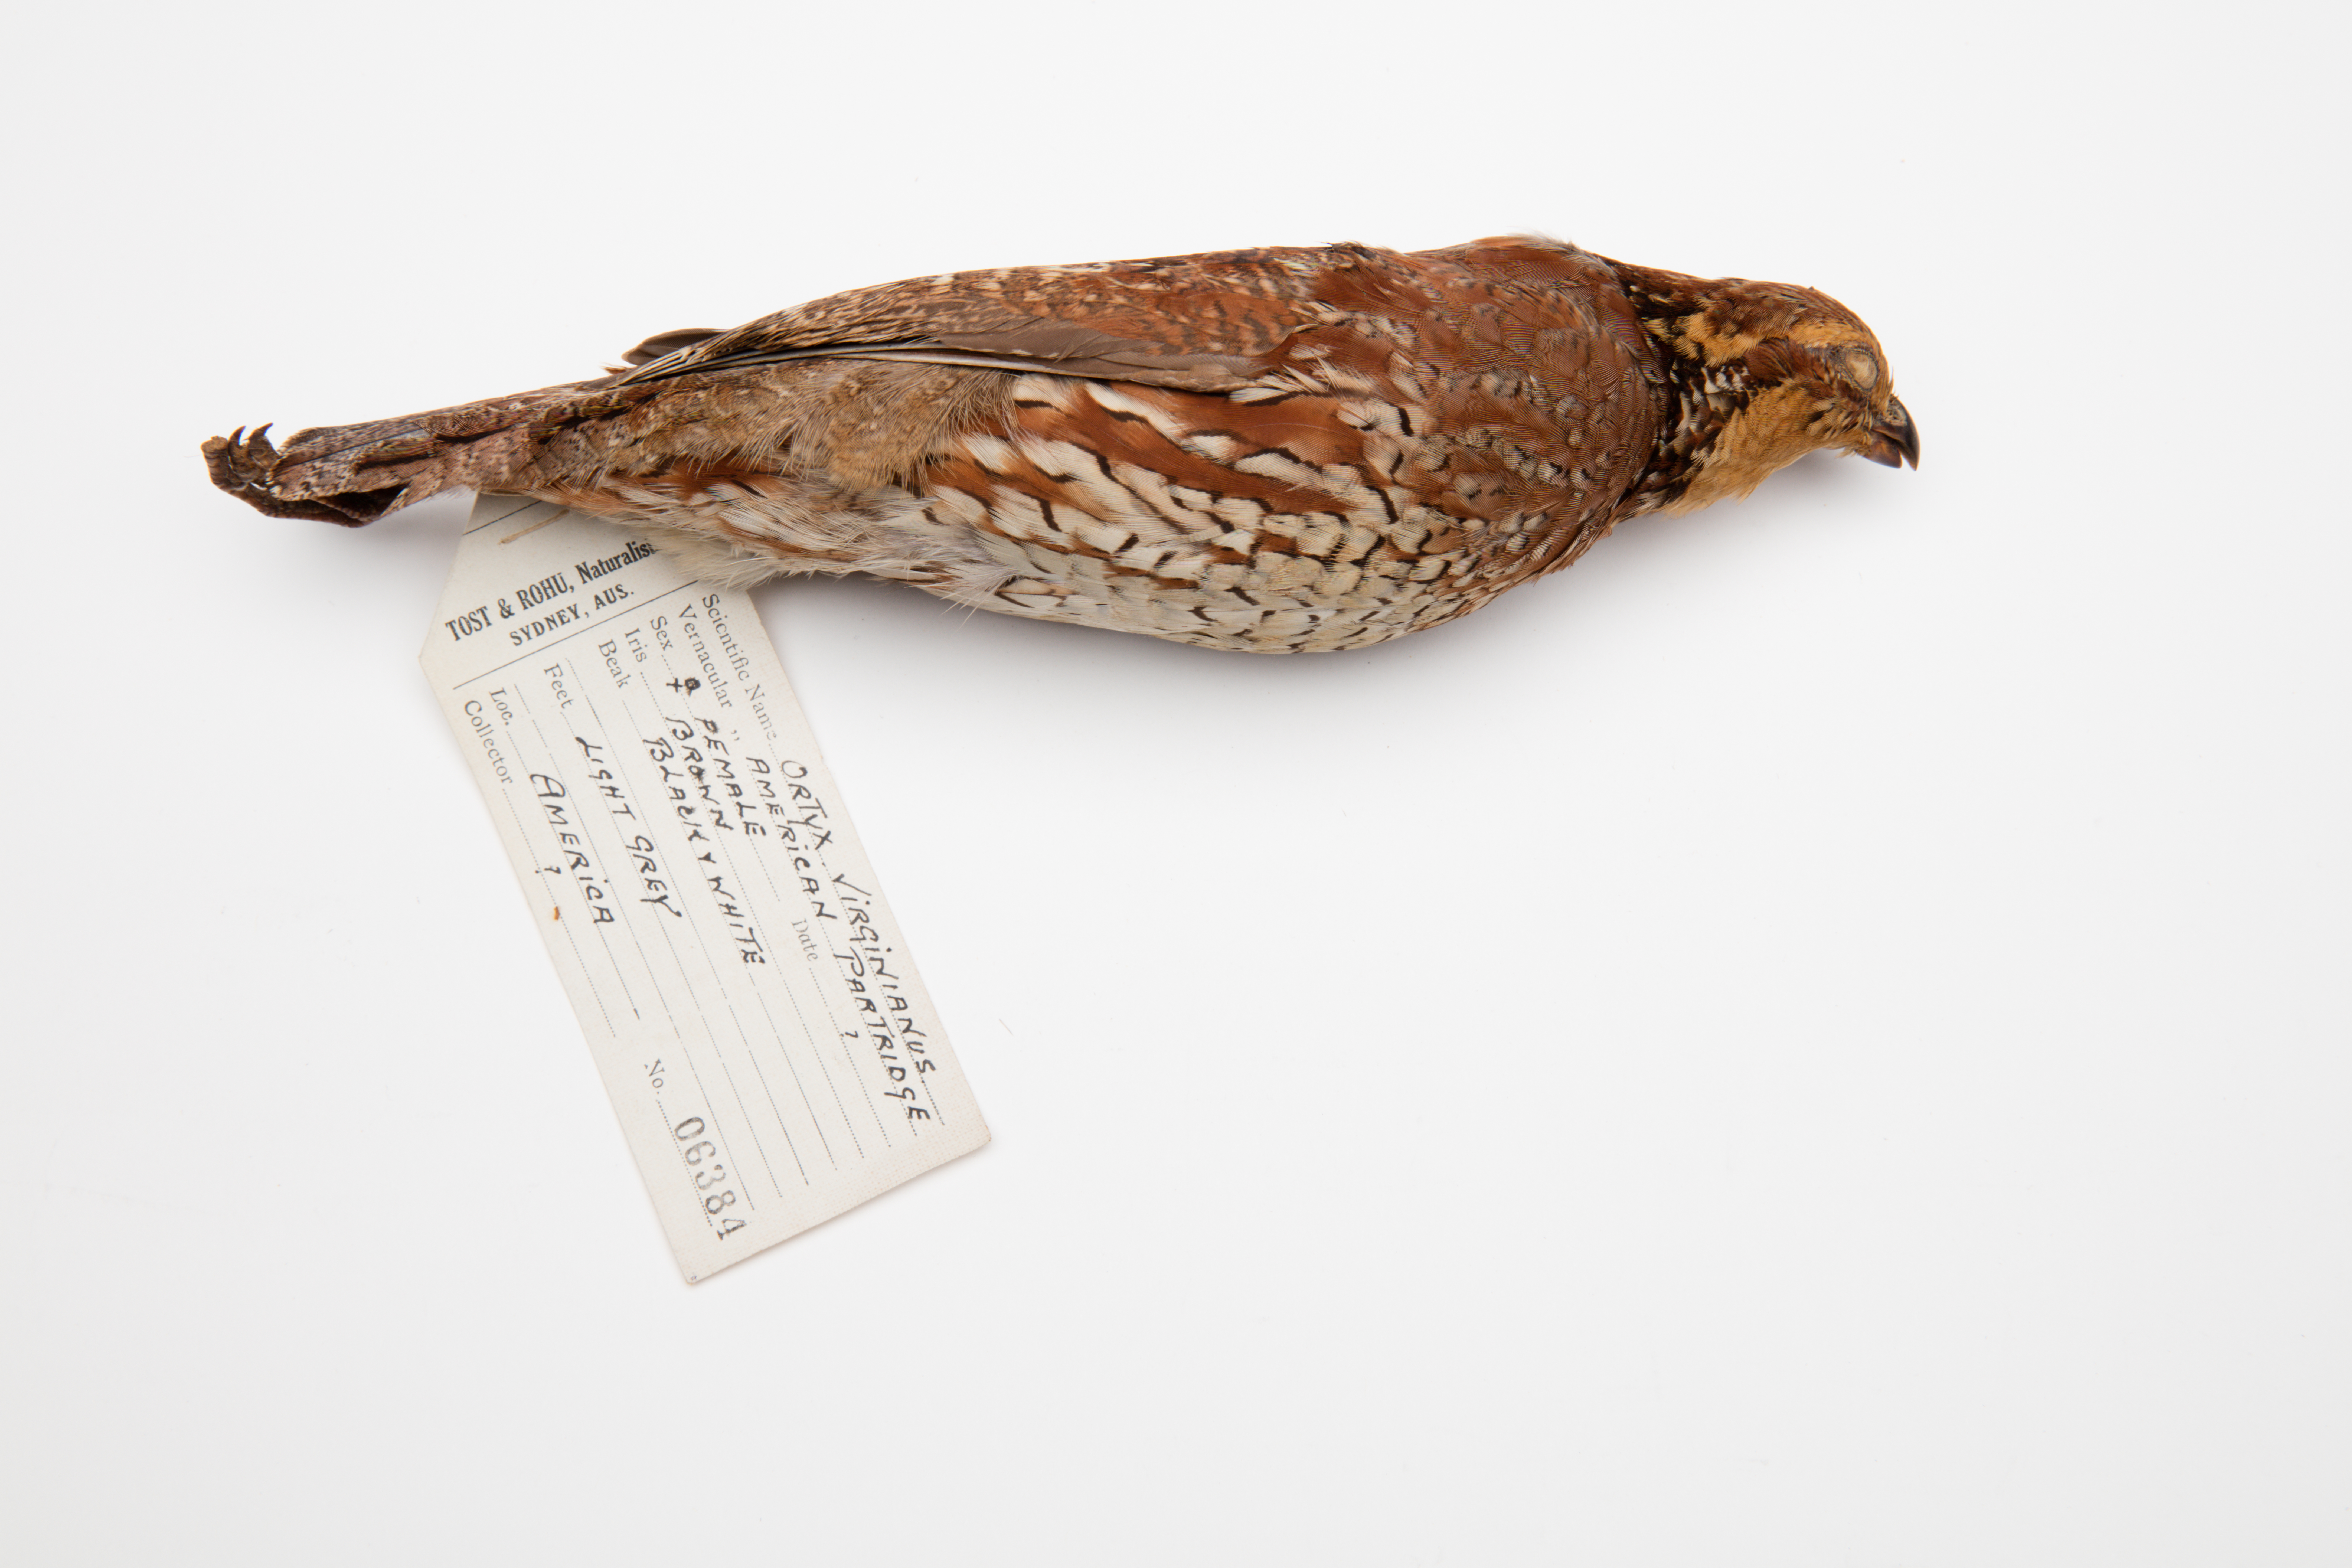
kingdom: Animalia
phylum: Chordata
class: Aves
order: Galliformes
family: Odontophoridae
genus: Colinus
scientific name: Colinus virginianus
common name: Northern bobwhite
